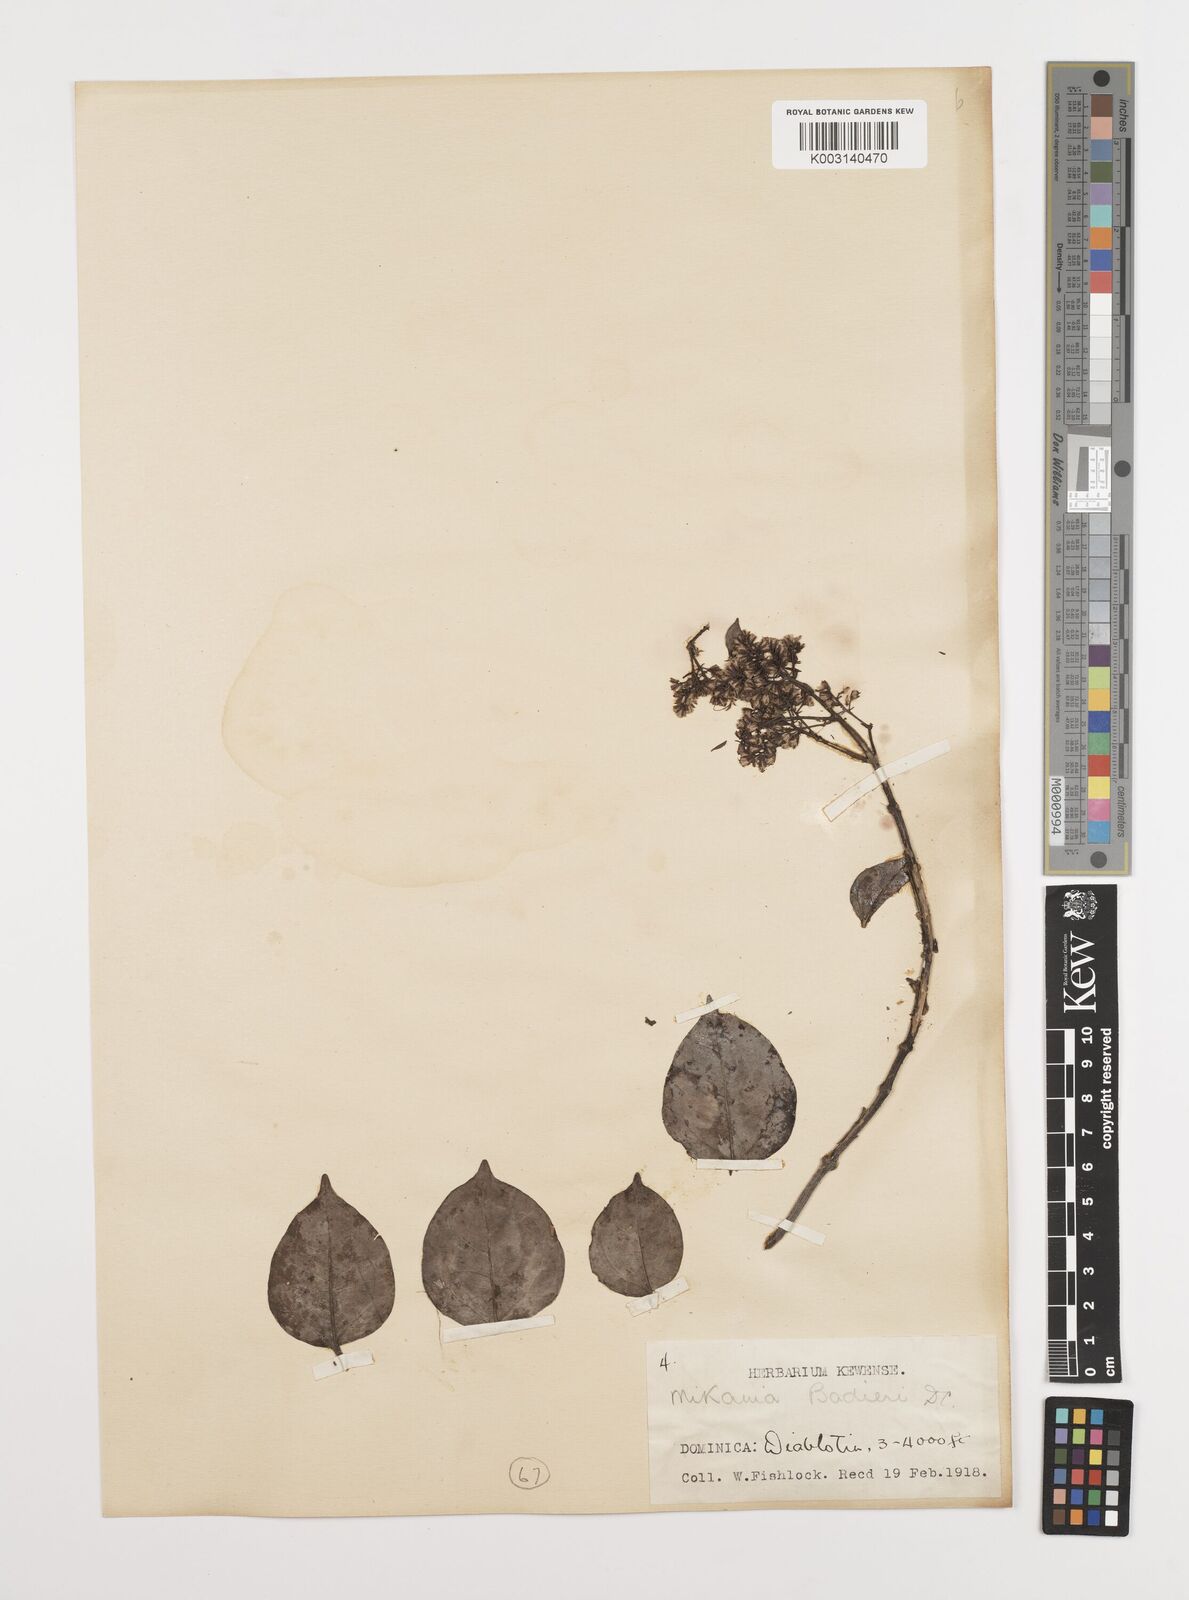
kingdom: Plantae
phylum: Tracheophyta
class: Magnoliopsida
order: Asterales
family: Asteraceae
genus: Mikania
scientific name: Mikania hookeriana
